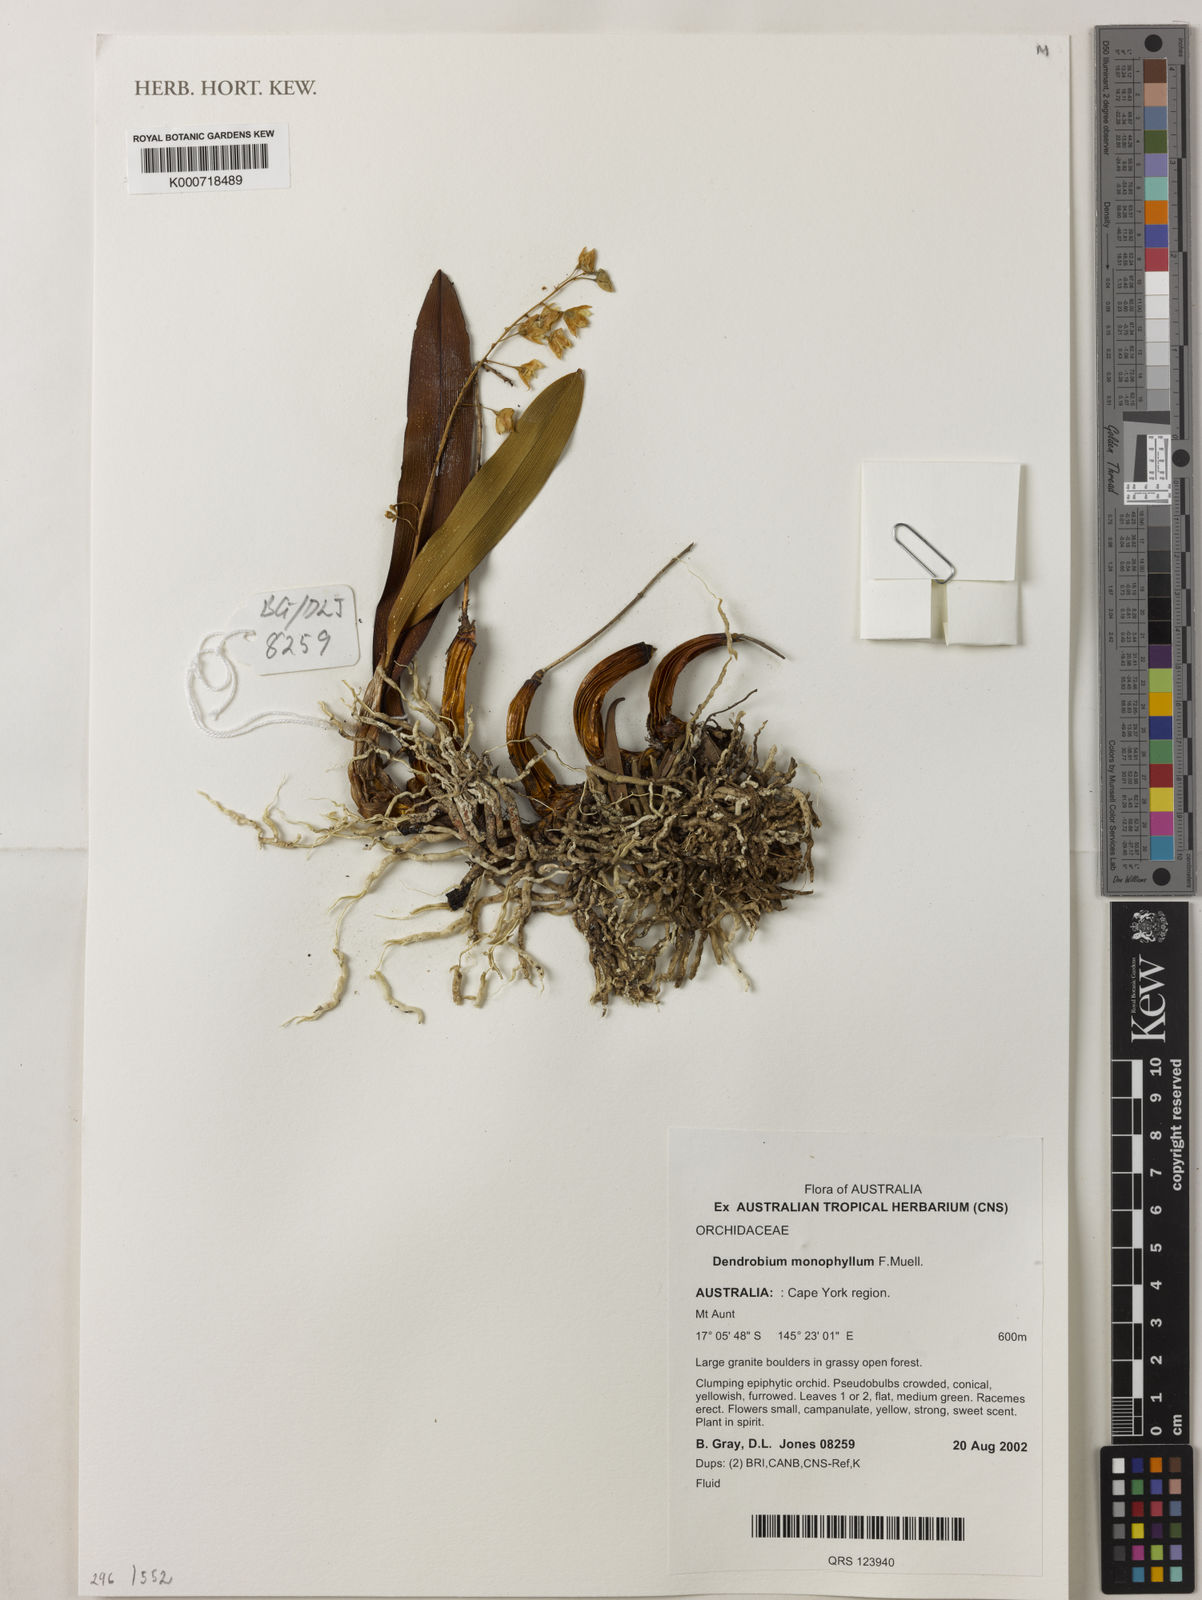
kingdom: Plantae
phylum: Tracheophyta
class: Liliopsida
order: Asparagales
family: Orchidaceae
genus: Dendrobium
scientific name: Dendrobium monophyllum
